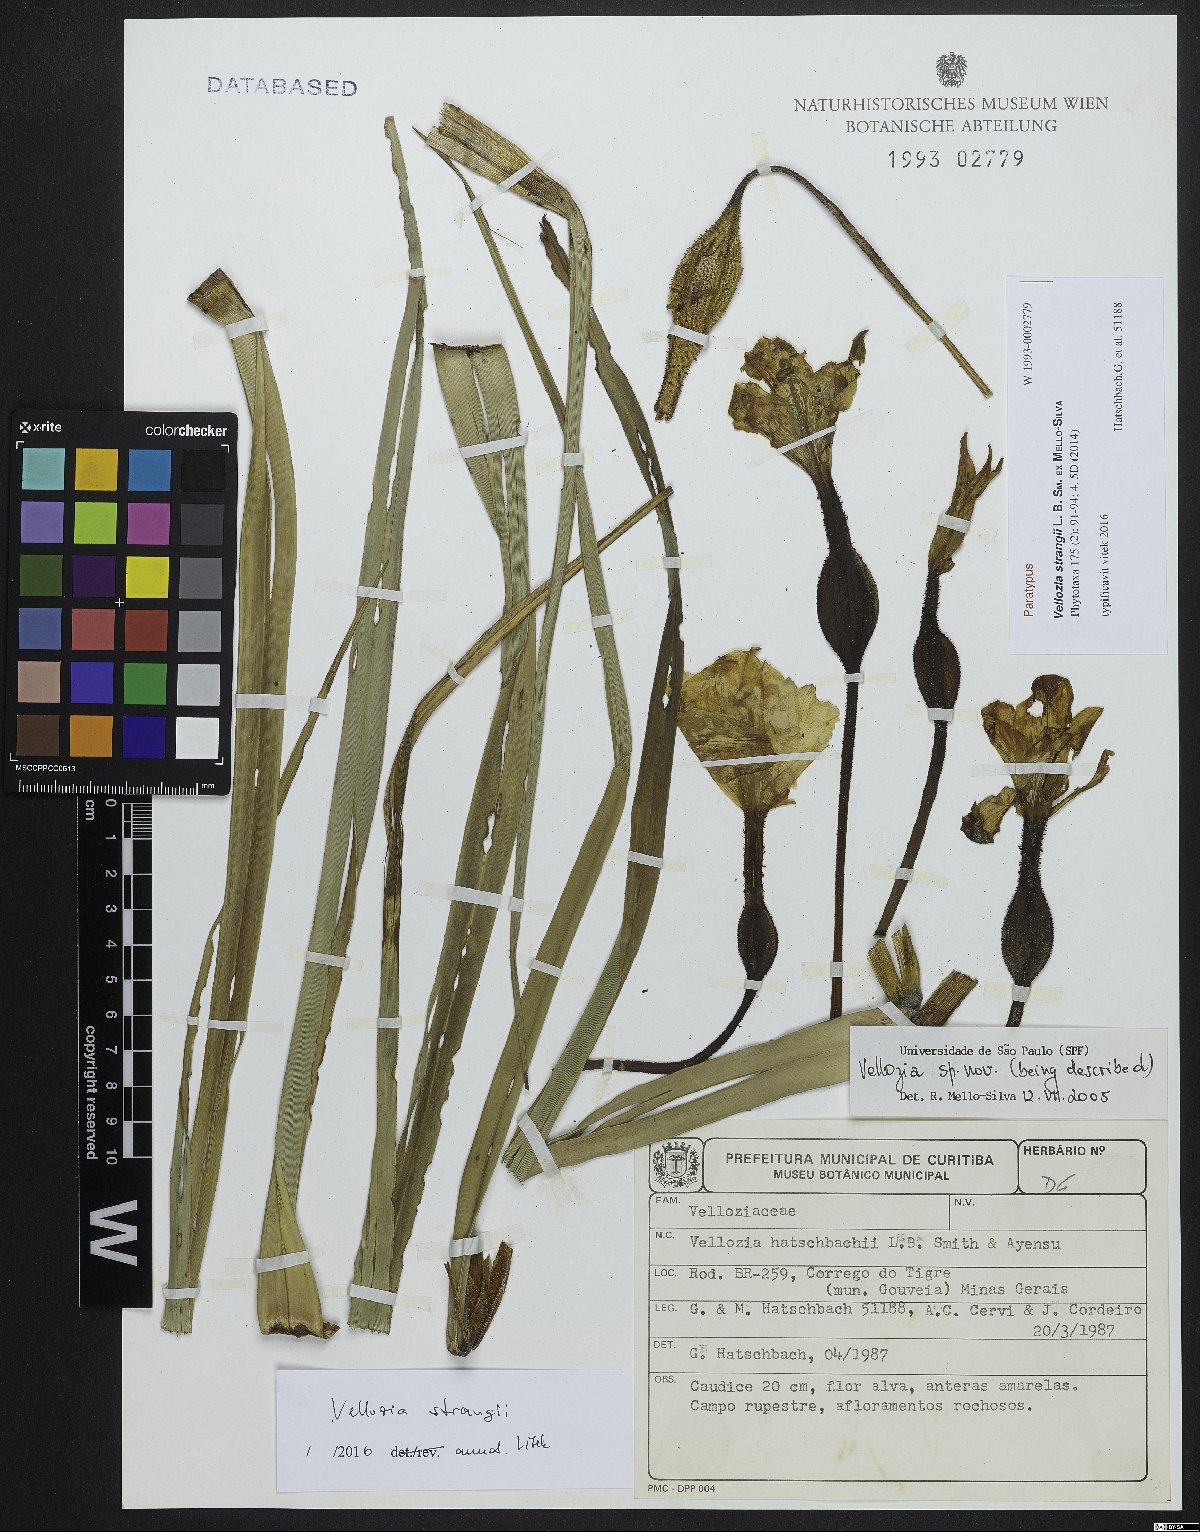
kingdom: Plantae
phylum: Tracheophyta
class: Liliopsida
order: Pandanales
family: Velloziaceae
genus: Vellozia
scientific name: Vellozia strangii
